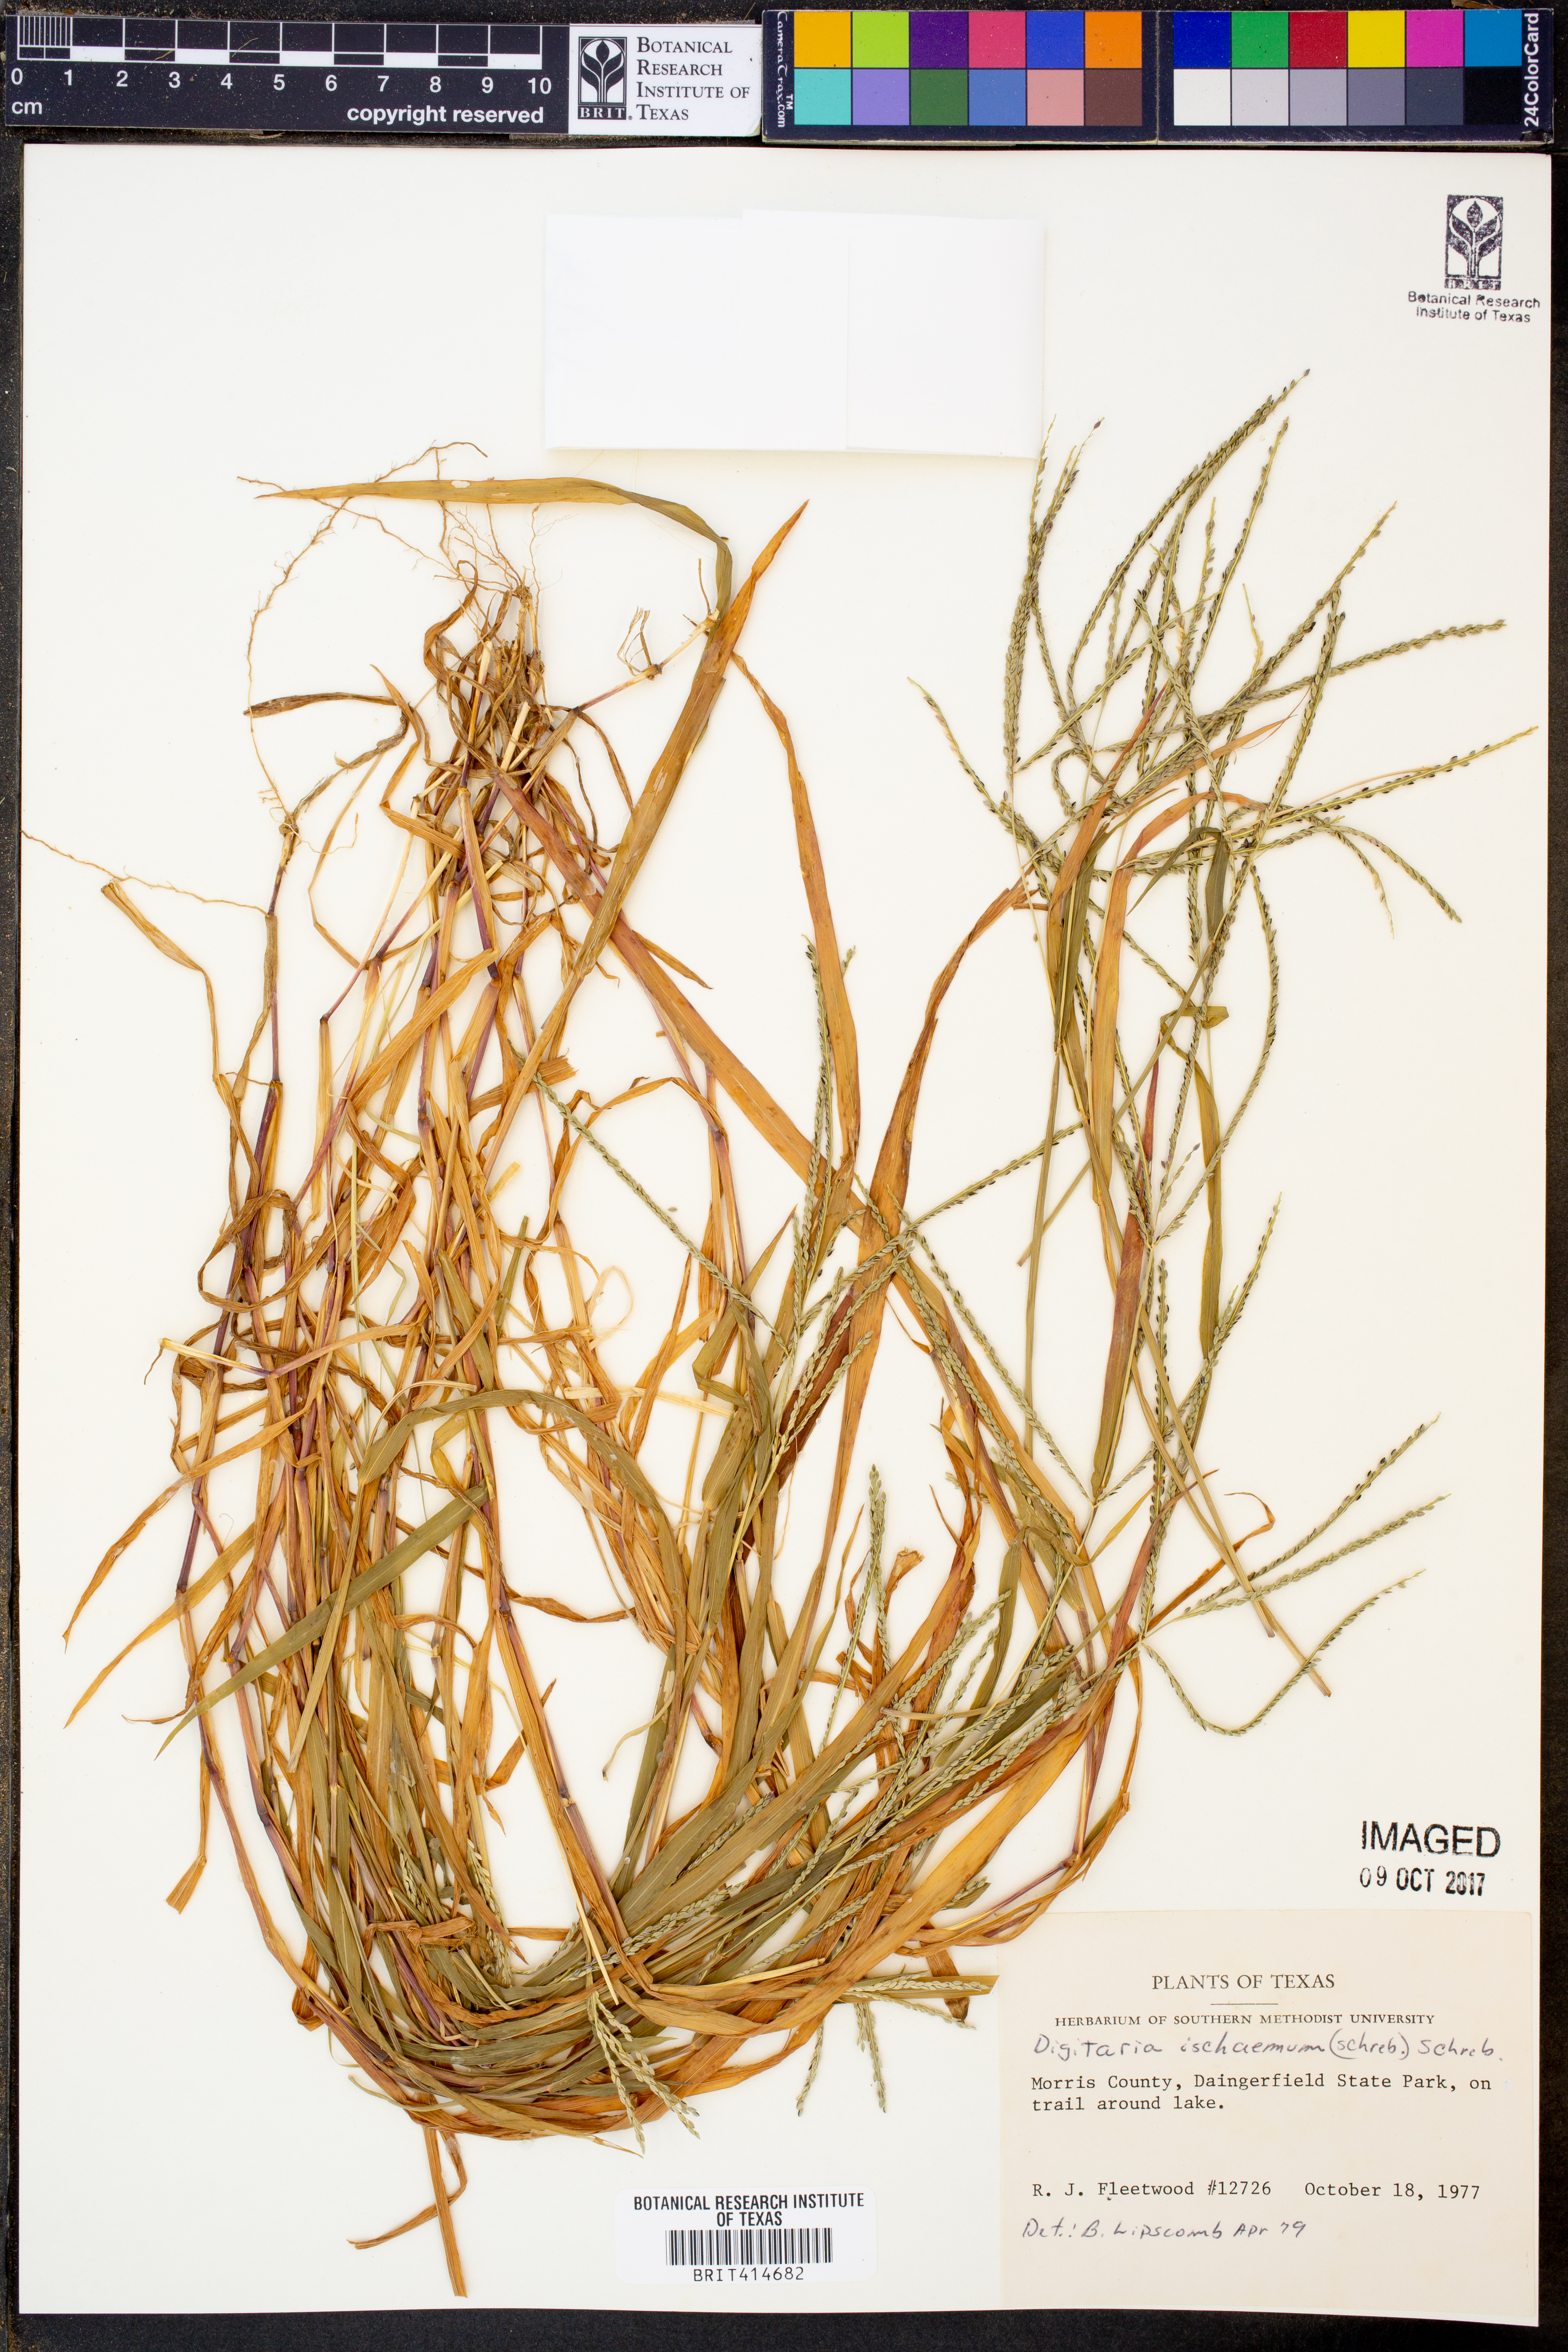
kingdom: Plantae
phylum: Tracheophyta
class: Liliopsida
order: Poales
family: Poaceae
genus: Digitaria
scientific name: Digitaria ischaemum
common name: Smooth crabgrass
